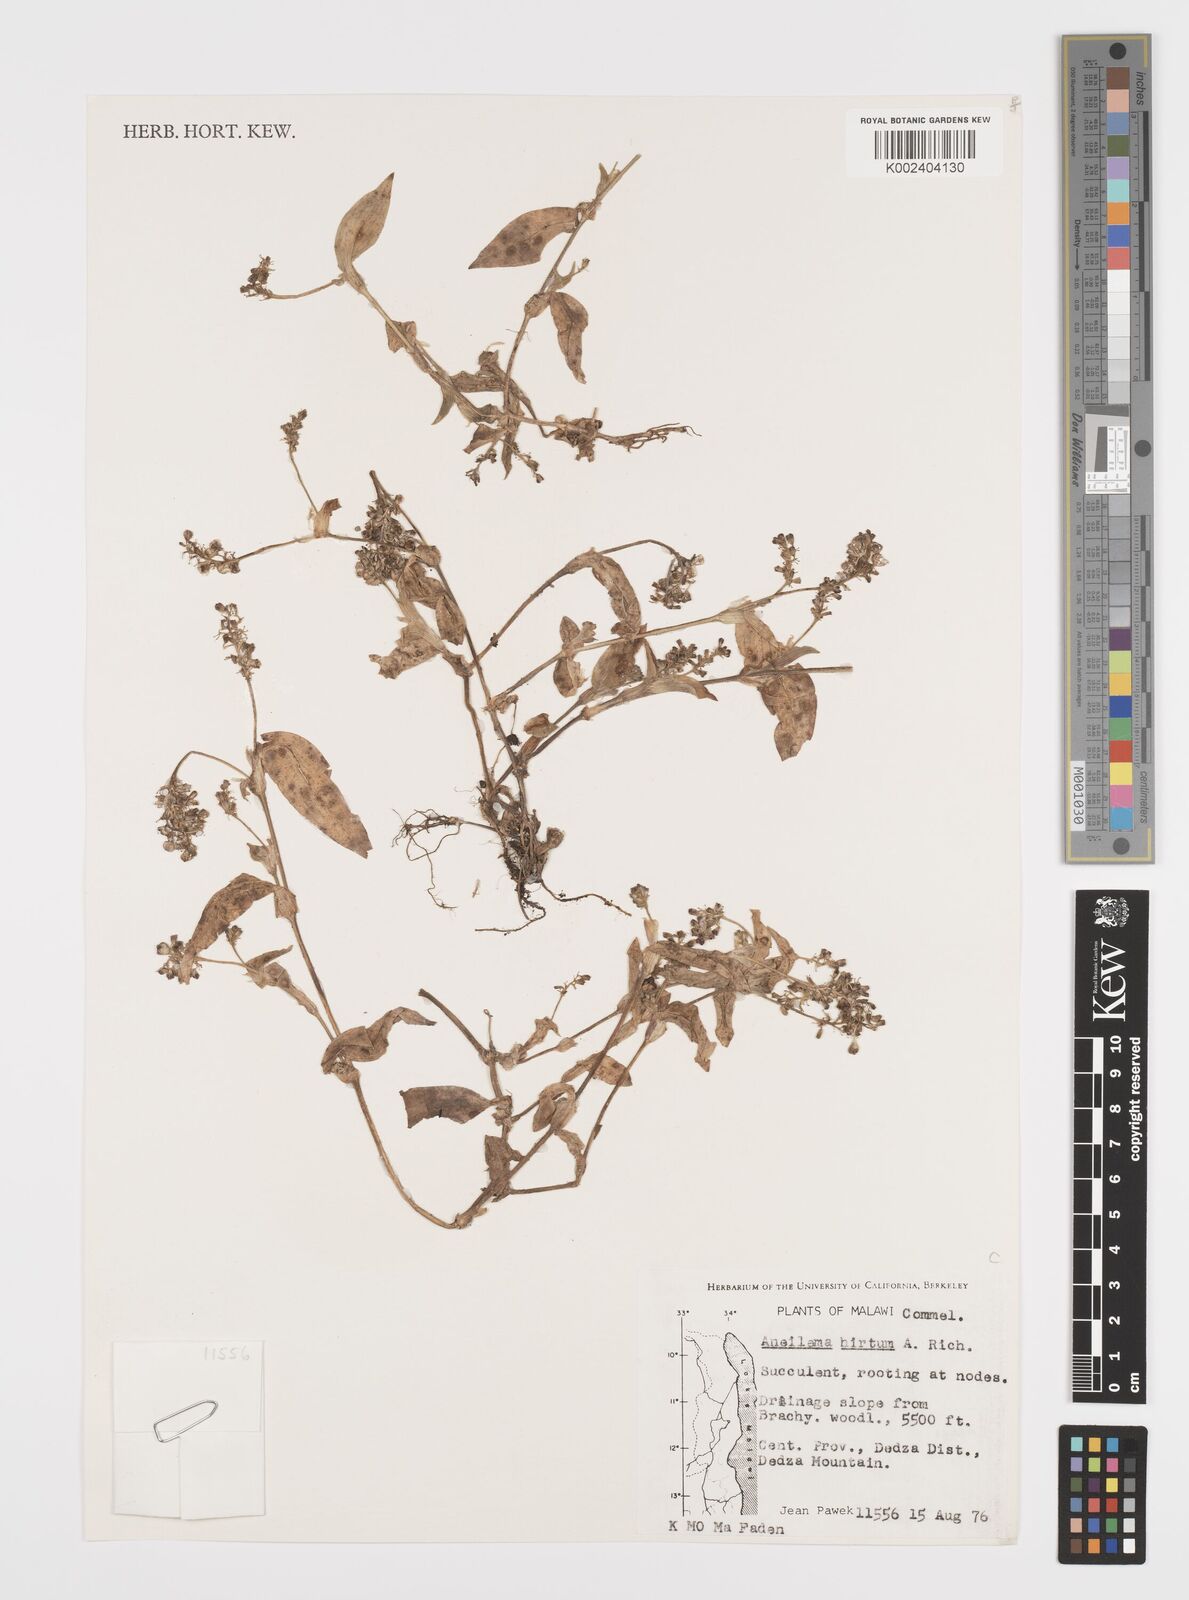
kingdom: Plantae
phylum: Tracheophyta
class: Liliopsida
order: Commelinales
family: Commelinaceae
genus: Aneilema
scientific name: Aneilema hirtum
